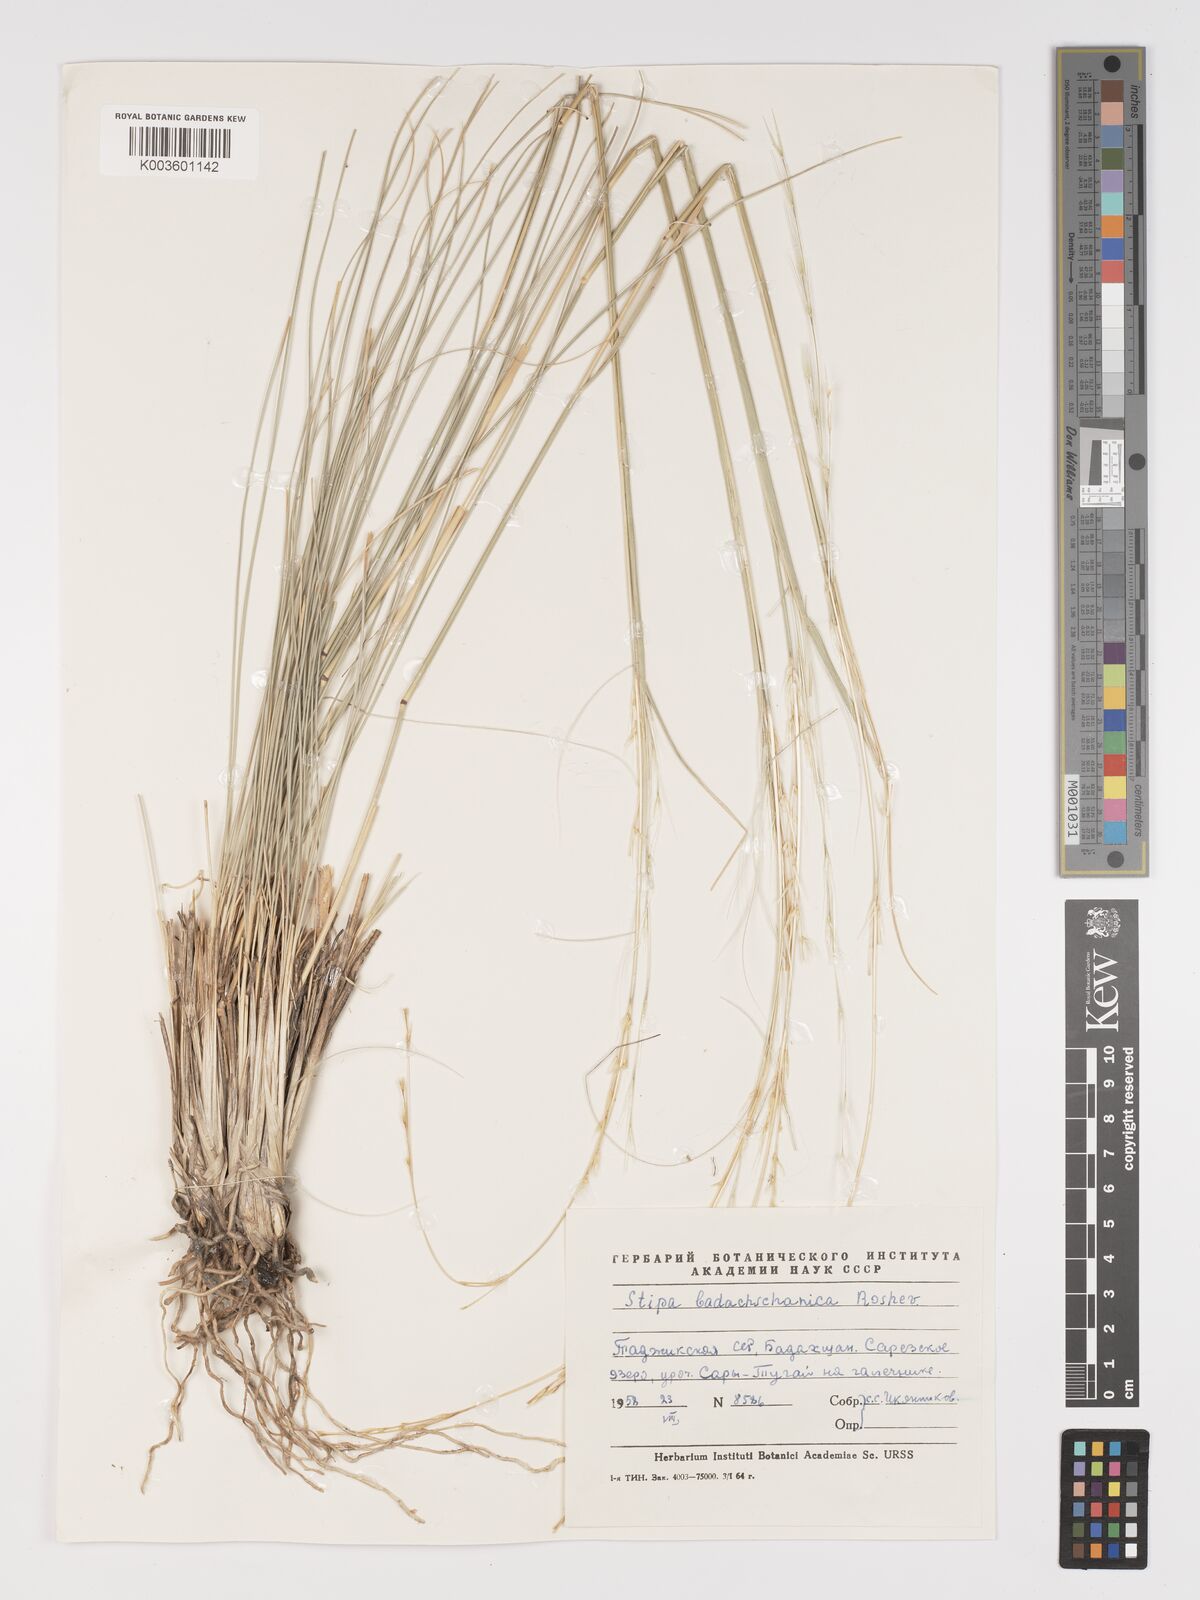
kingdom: Plantae
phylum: Tracheophyta
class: Liliopsida
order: Poales
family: Poaceae
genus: Stipa
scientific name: Stipa badachschanica
